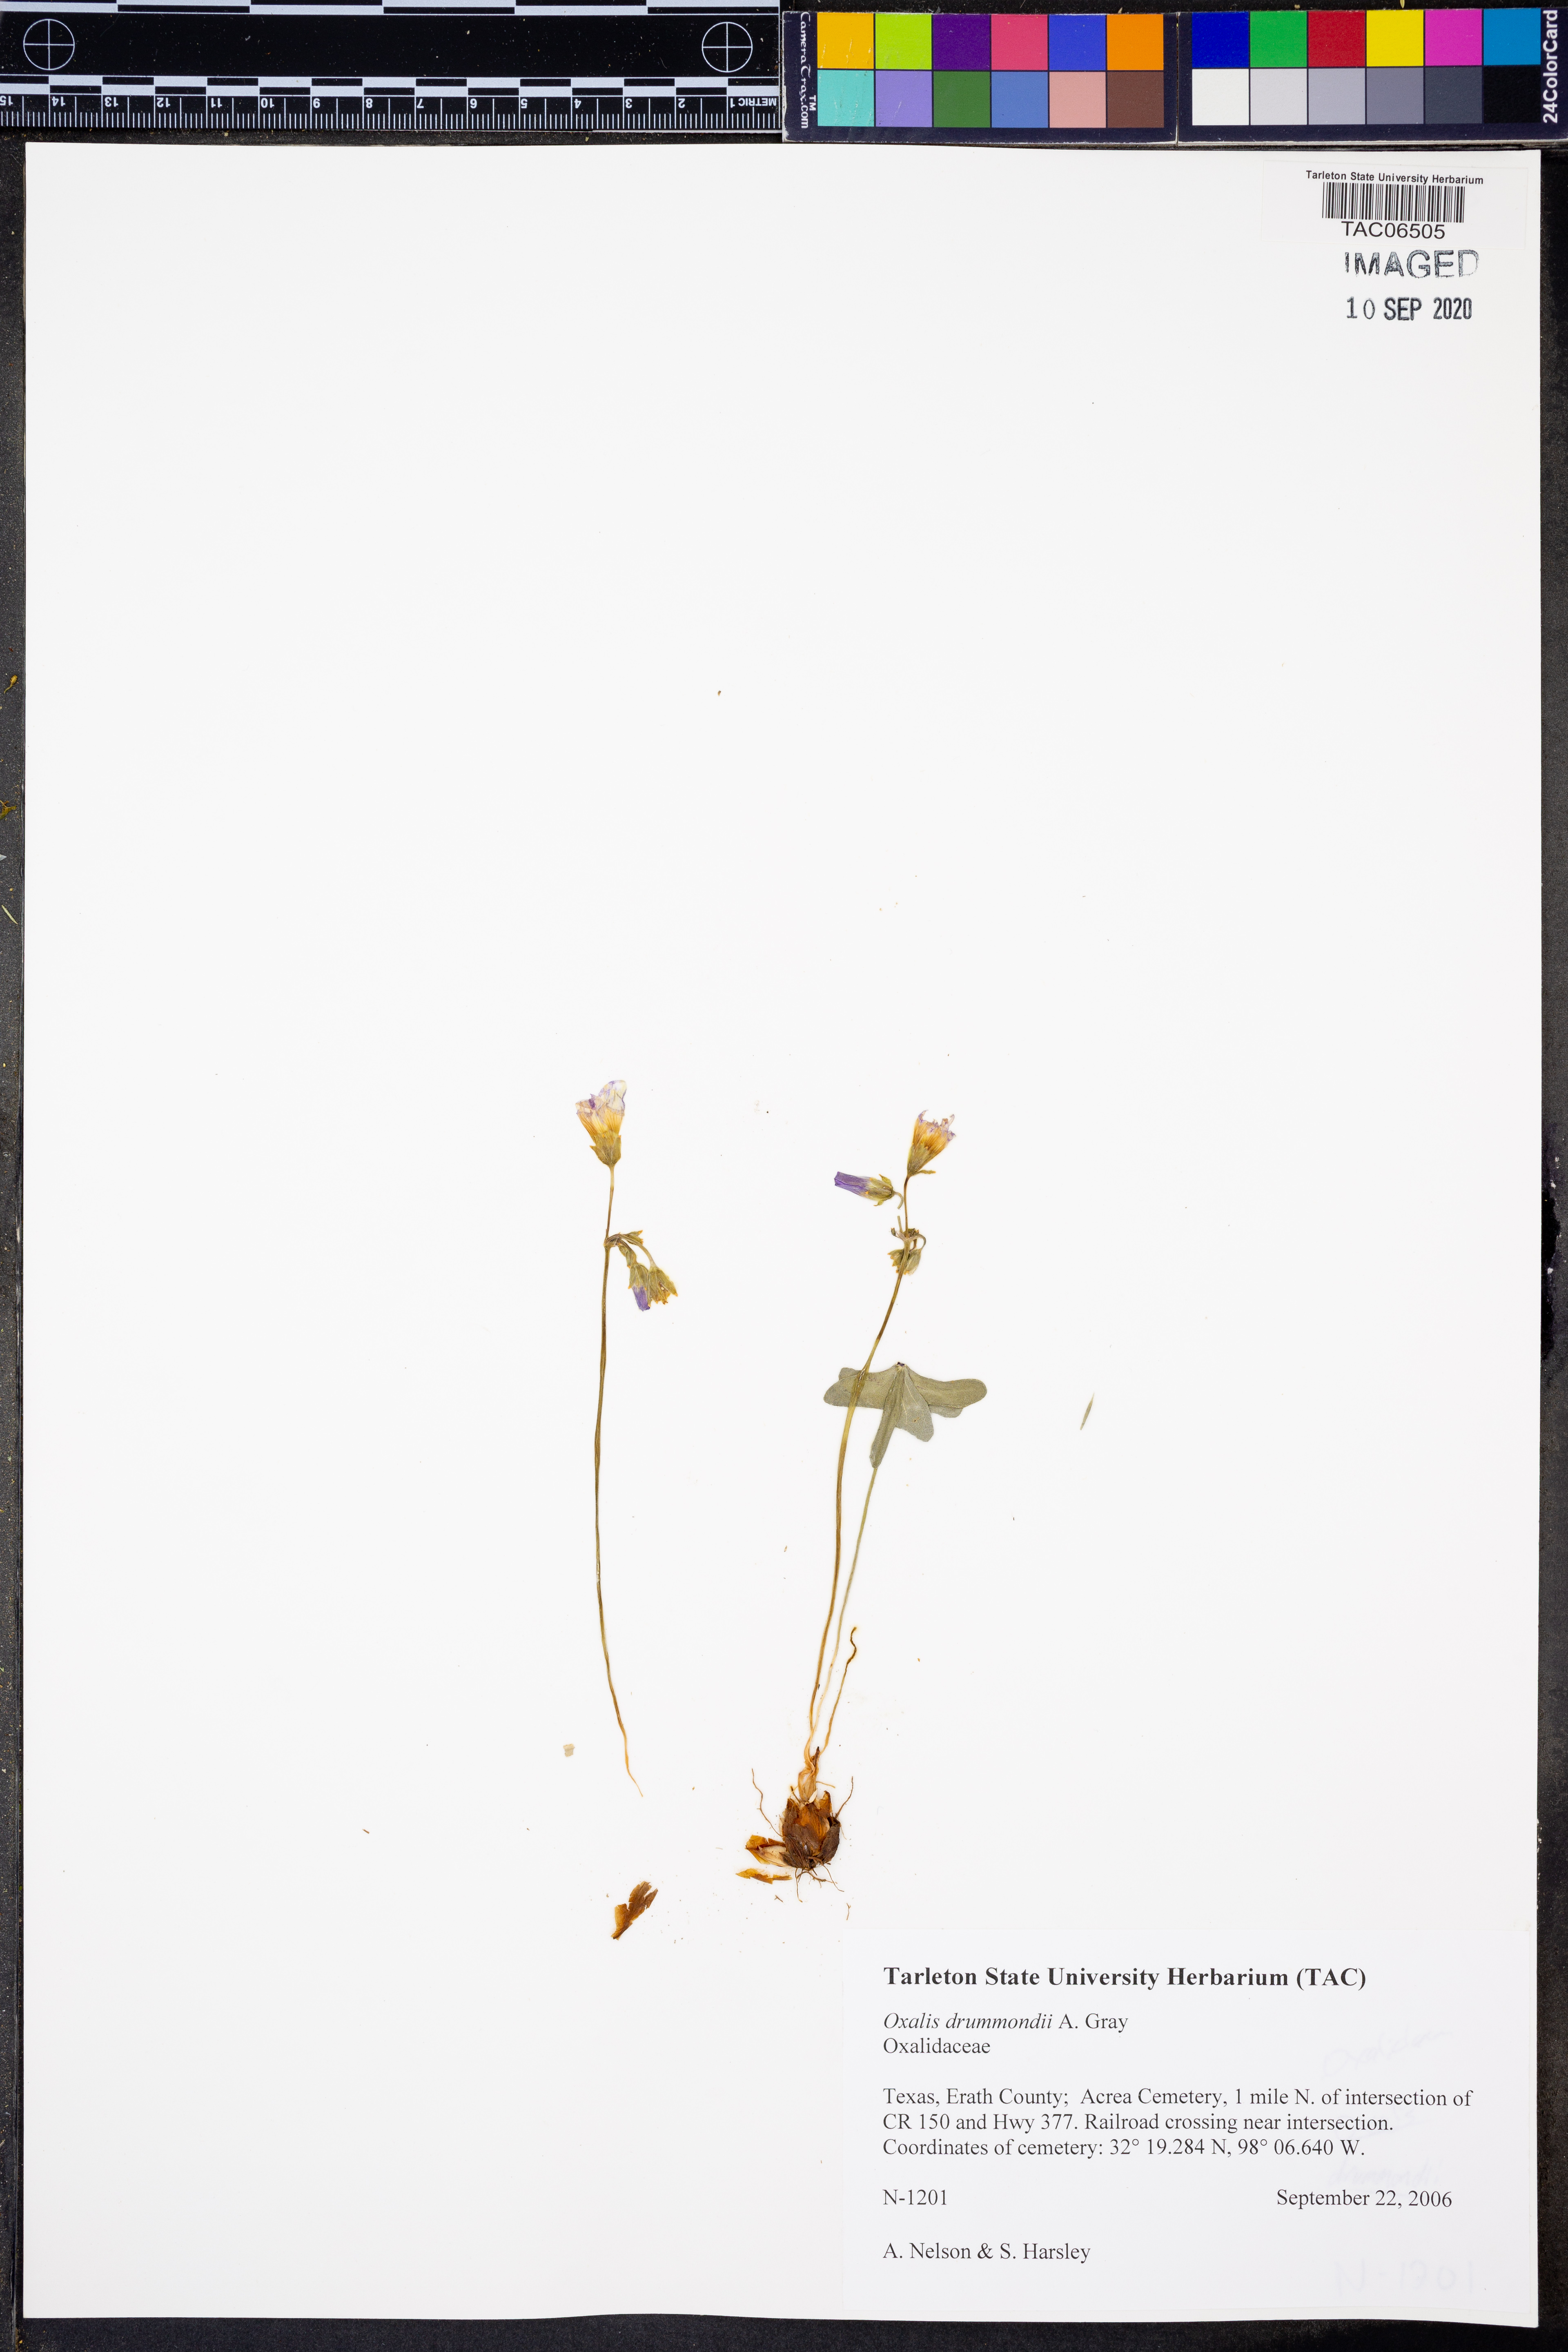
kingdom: Plantae
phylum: Tracheophyta
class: Magnoliopsida
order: Oxalidales
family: Oxalidaceae
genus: Oxalis
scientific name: Oxalis drummondii
